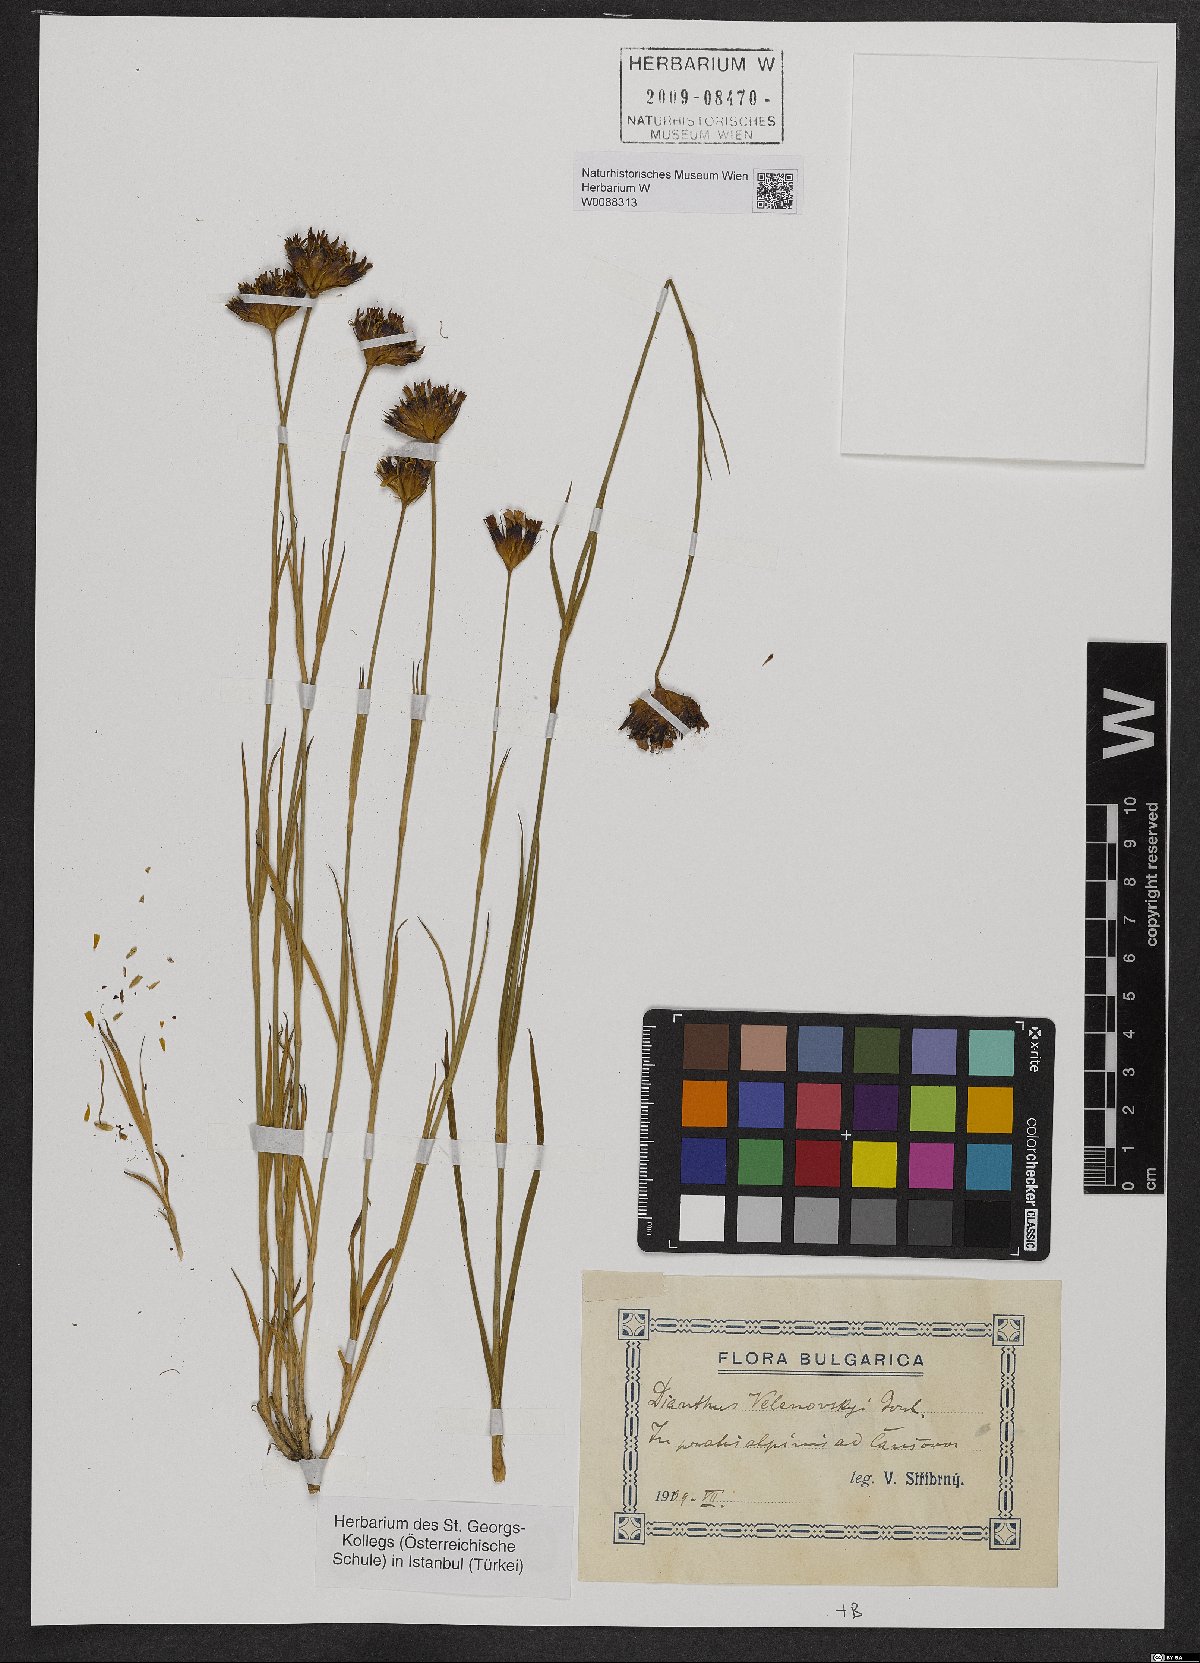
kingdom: Plantae
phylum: Tracheophyta
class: Magnoliopsida
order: Caryophyllales
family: Caryophyllaceae
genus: Dianthus
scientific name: Dianthus pancicii
